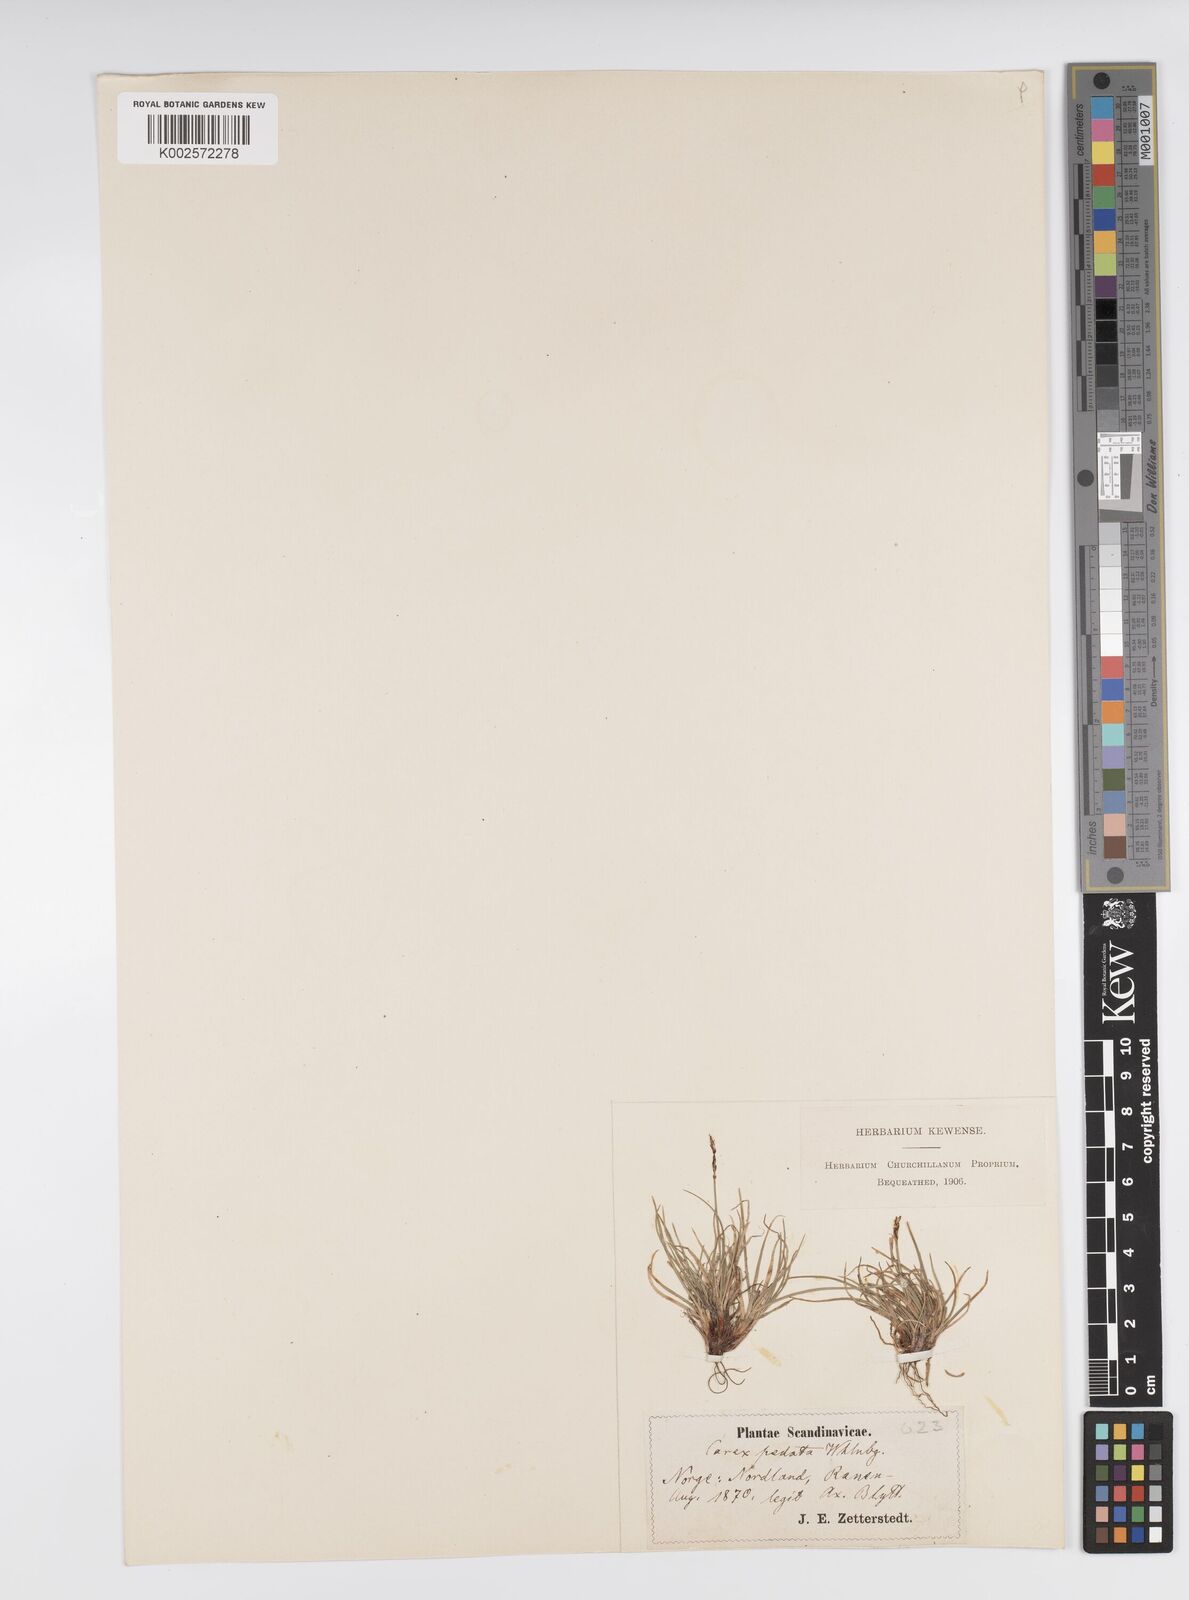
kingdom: Plantae
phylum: Tracheophyta
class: Liliopsida
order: Poales
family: Cyperaceae
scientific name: Cyperaceae
